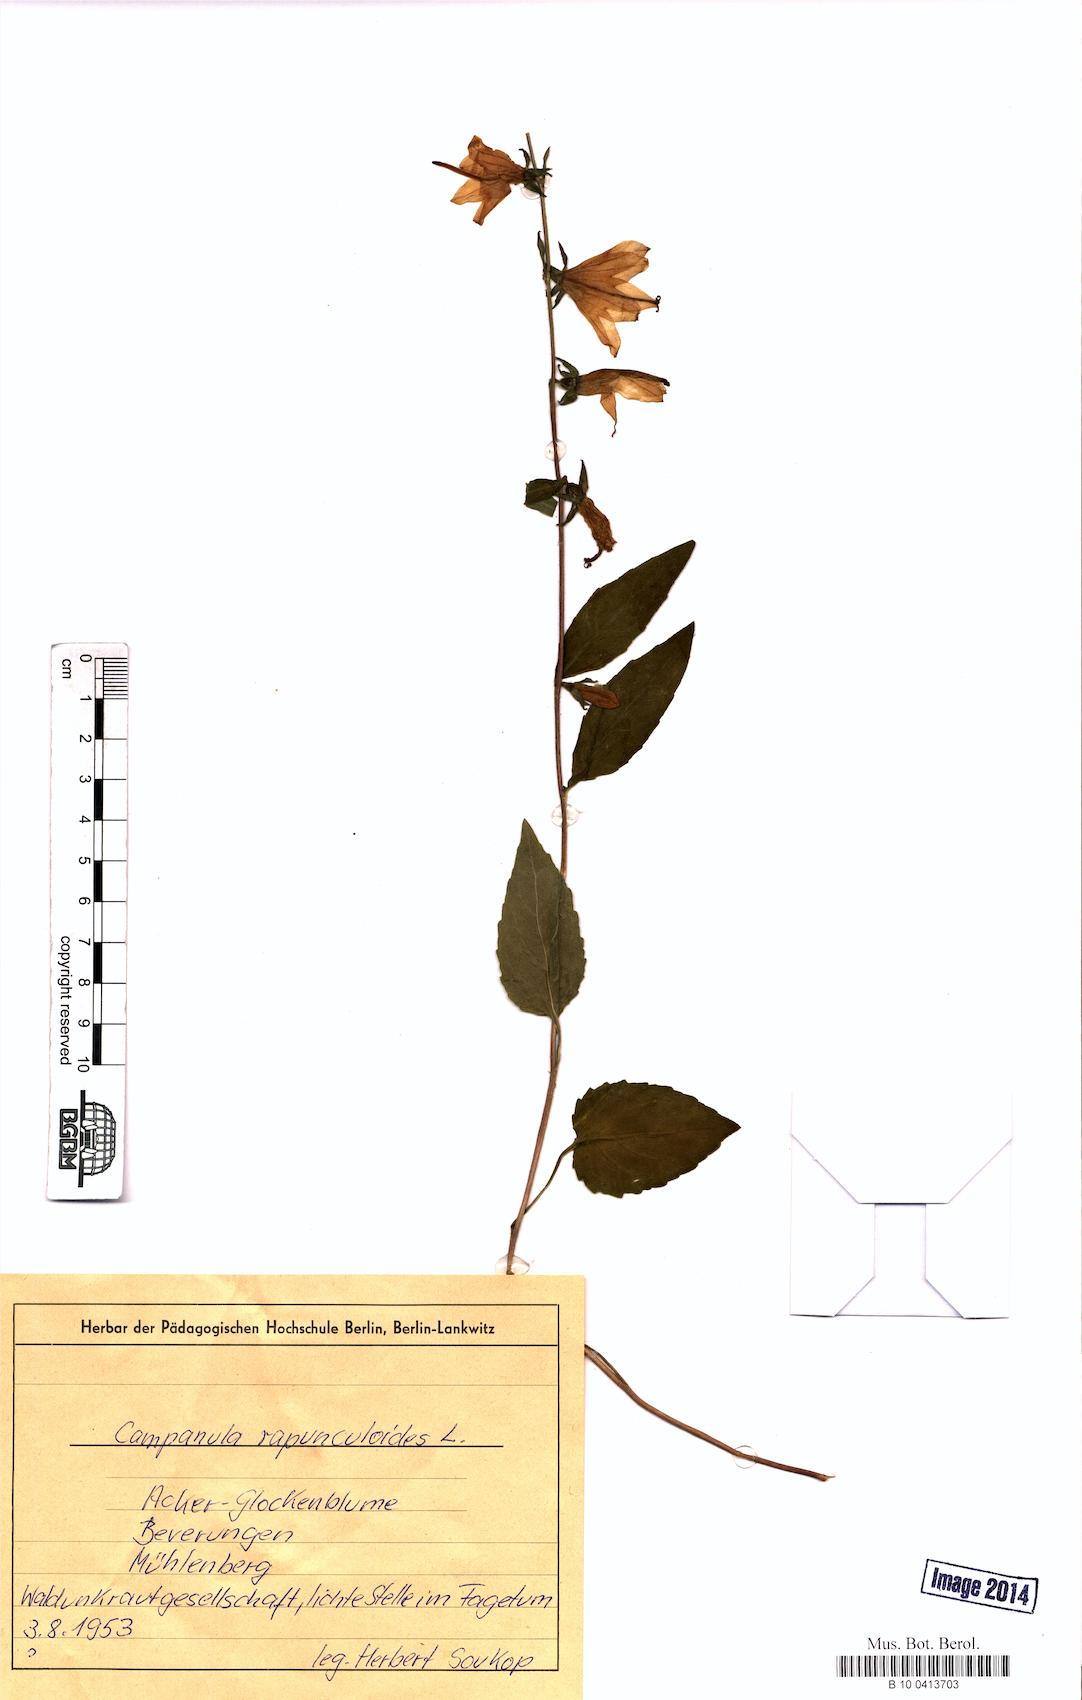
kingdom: Plantae
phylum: Tracheophyta
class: Magnoliopsida
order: Asterales
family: Campanulaceae
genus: Campanula
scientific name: Campanula rapunculoides
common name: Creeping bellflower
